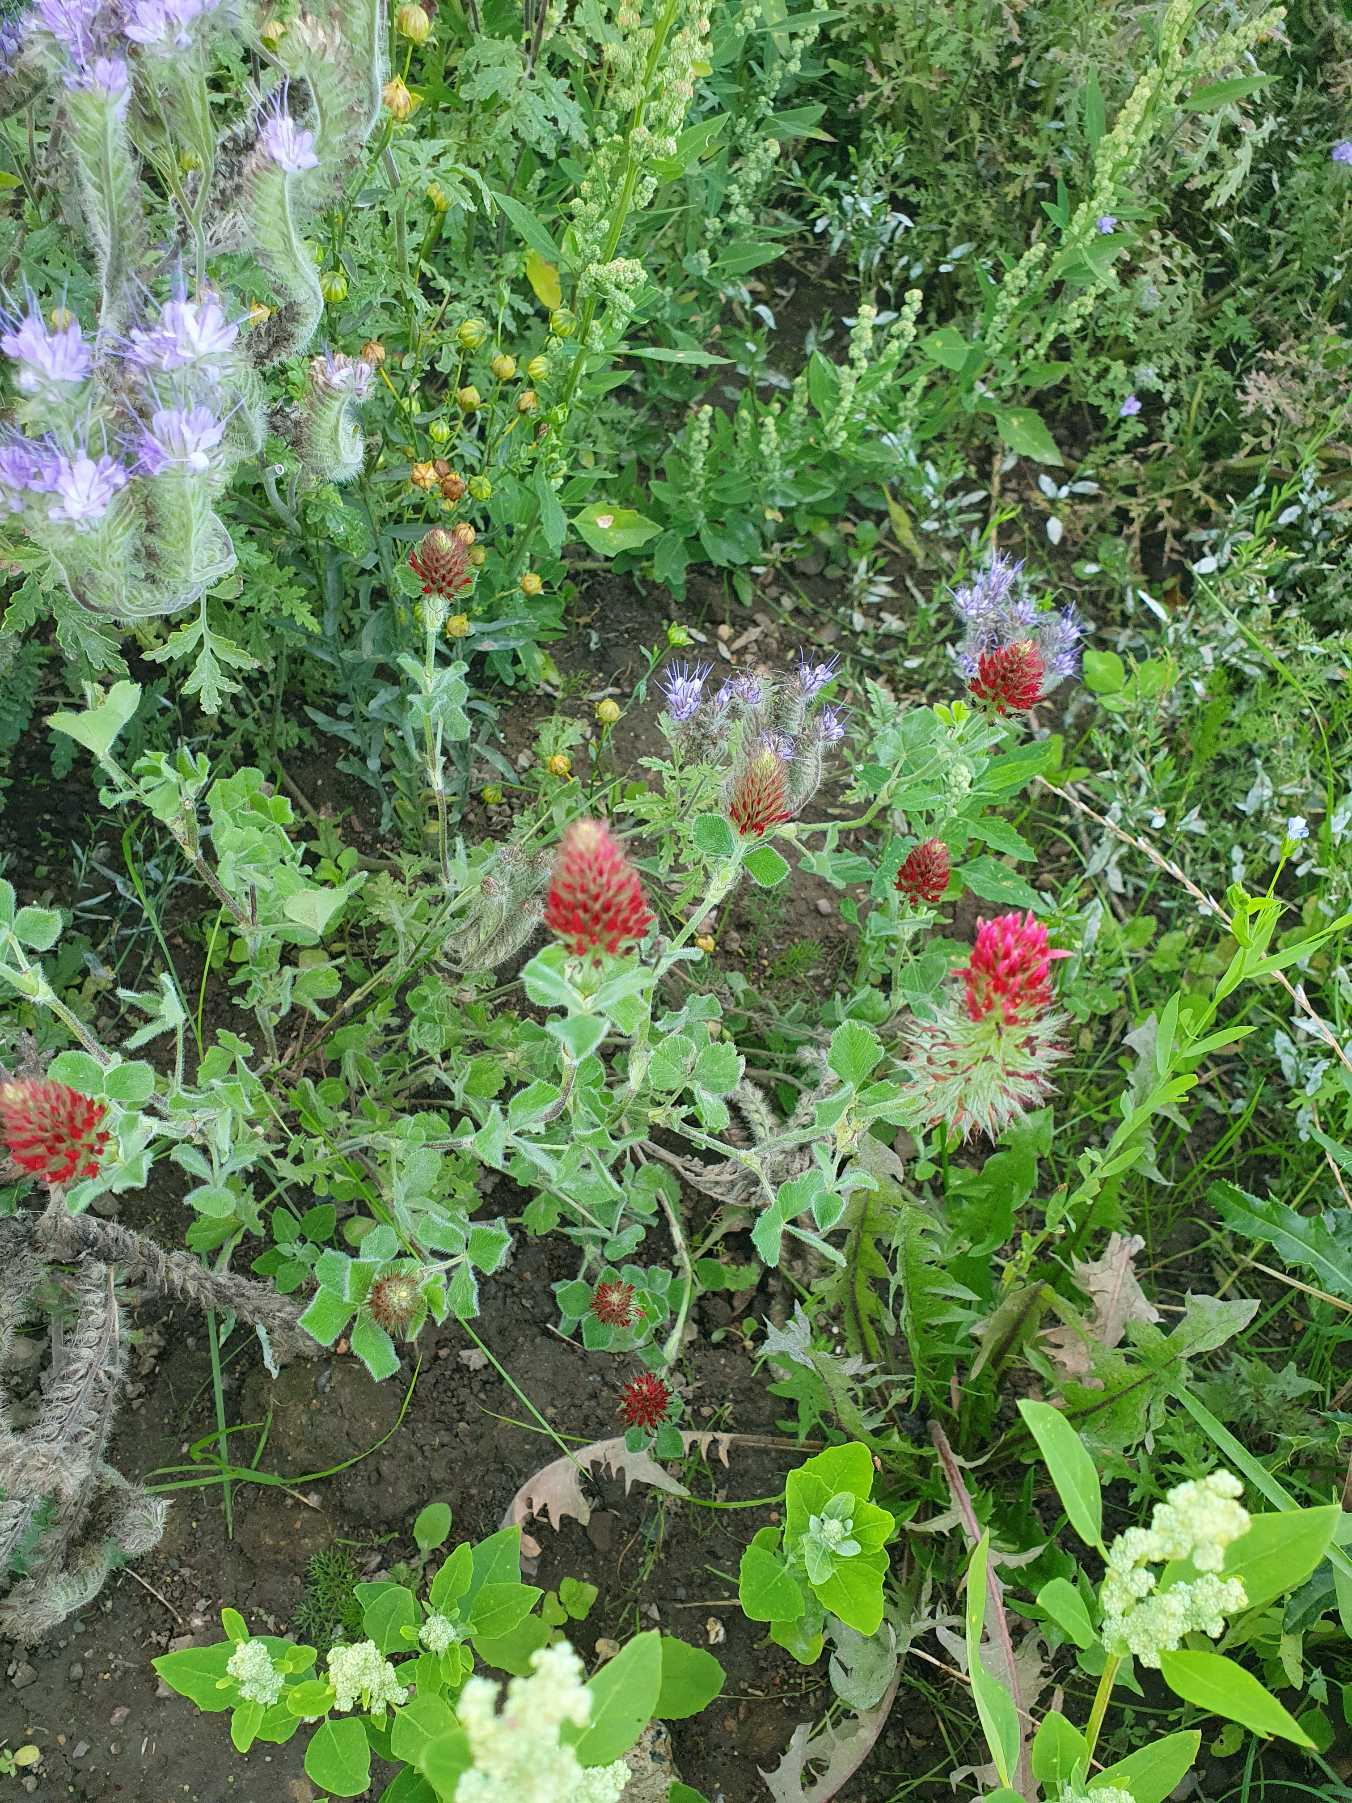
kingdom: Plantae
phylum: Tracheophyta
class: Magnoliopsida
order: Fabales
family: Fabaceae
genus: Trifolium
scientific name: Trifolium incarnatum
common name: Blod-kløver
